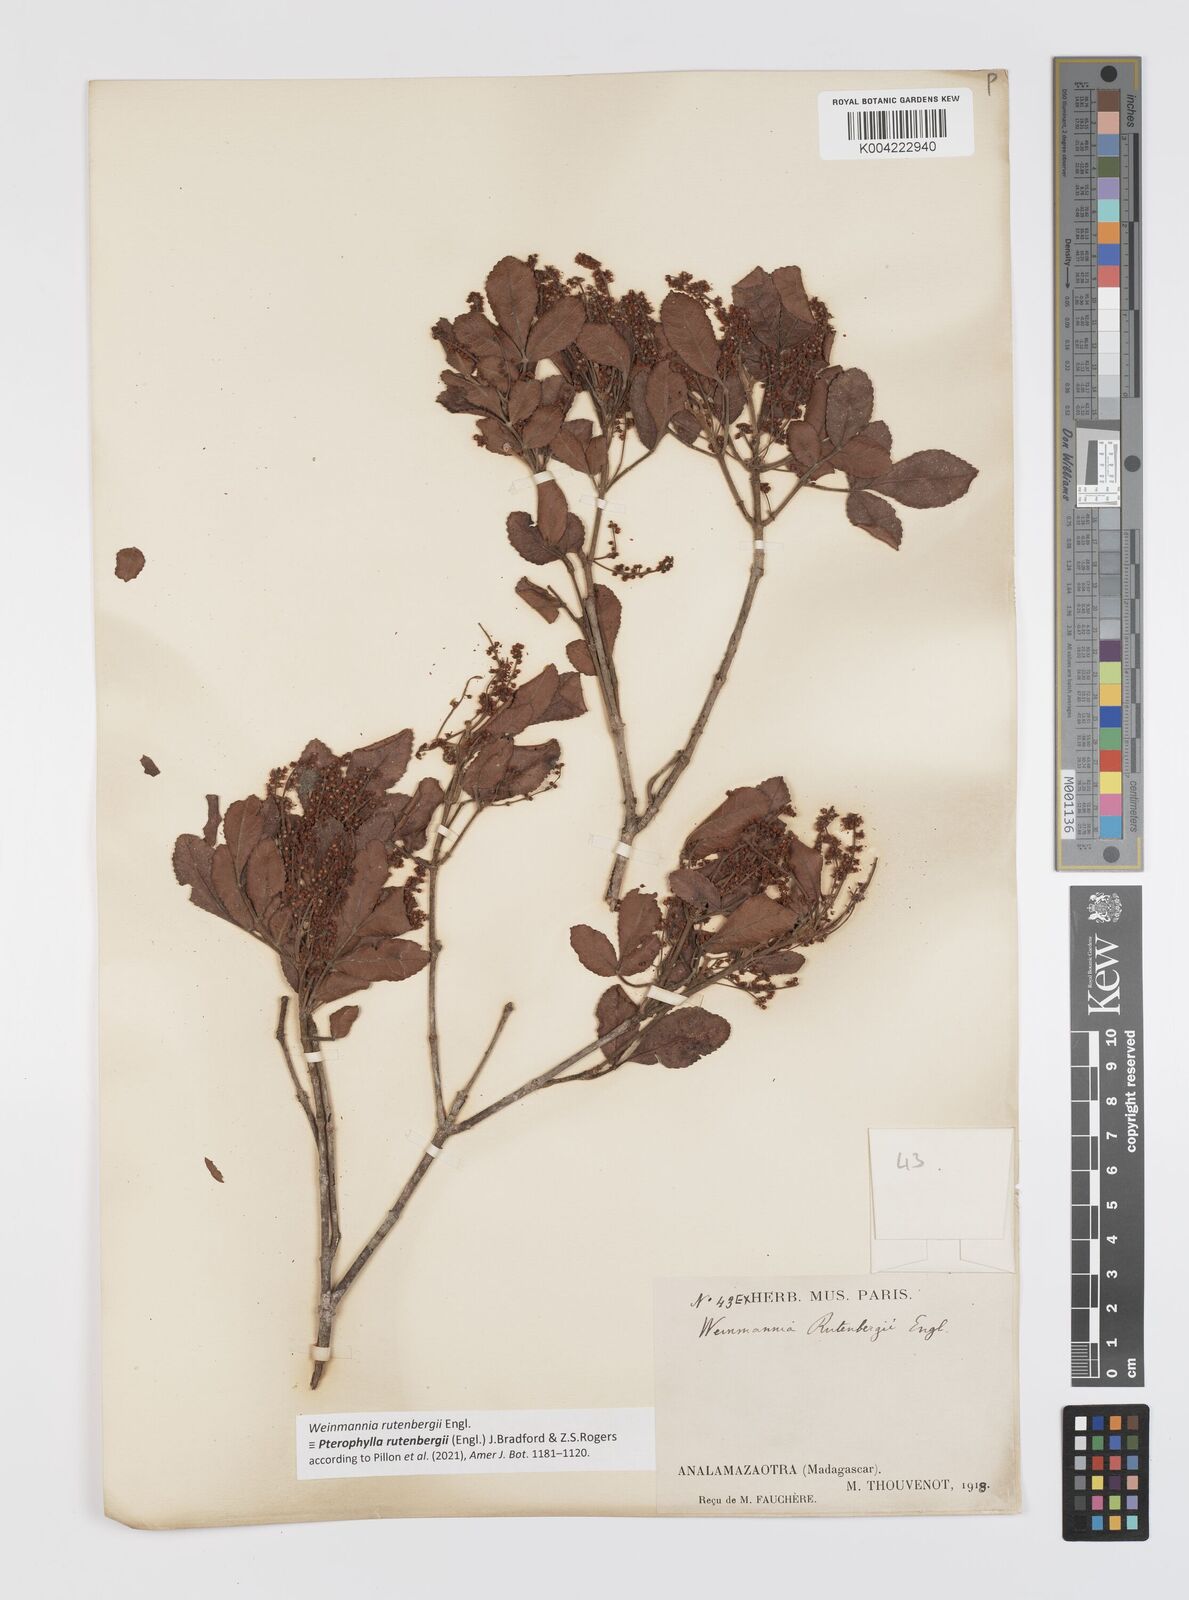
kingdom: Plantae
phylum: Tracheophyta
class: Magnoliopsida
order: Oxalidales
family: Cunoniaceae
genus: Pterophylla
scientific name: Pterophylla rutenbergii
